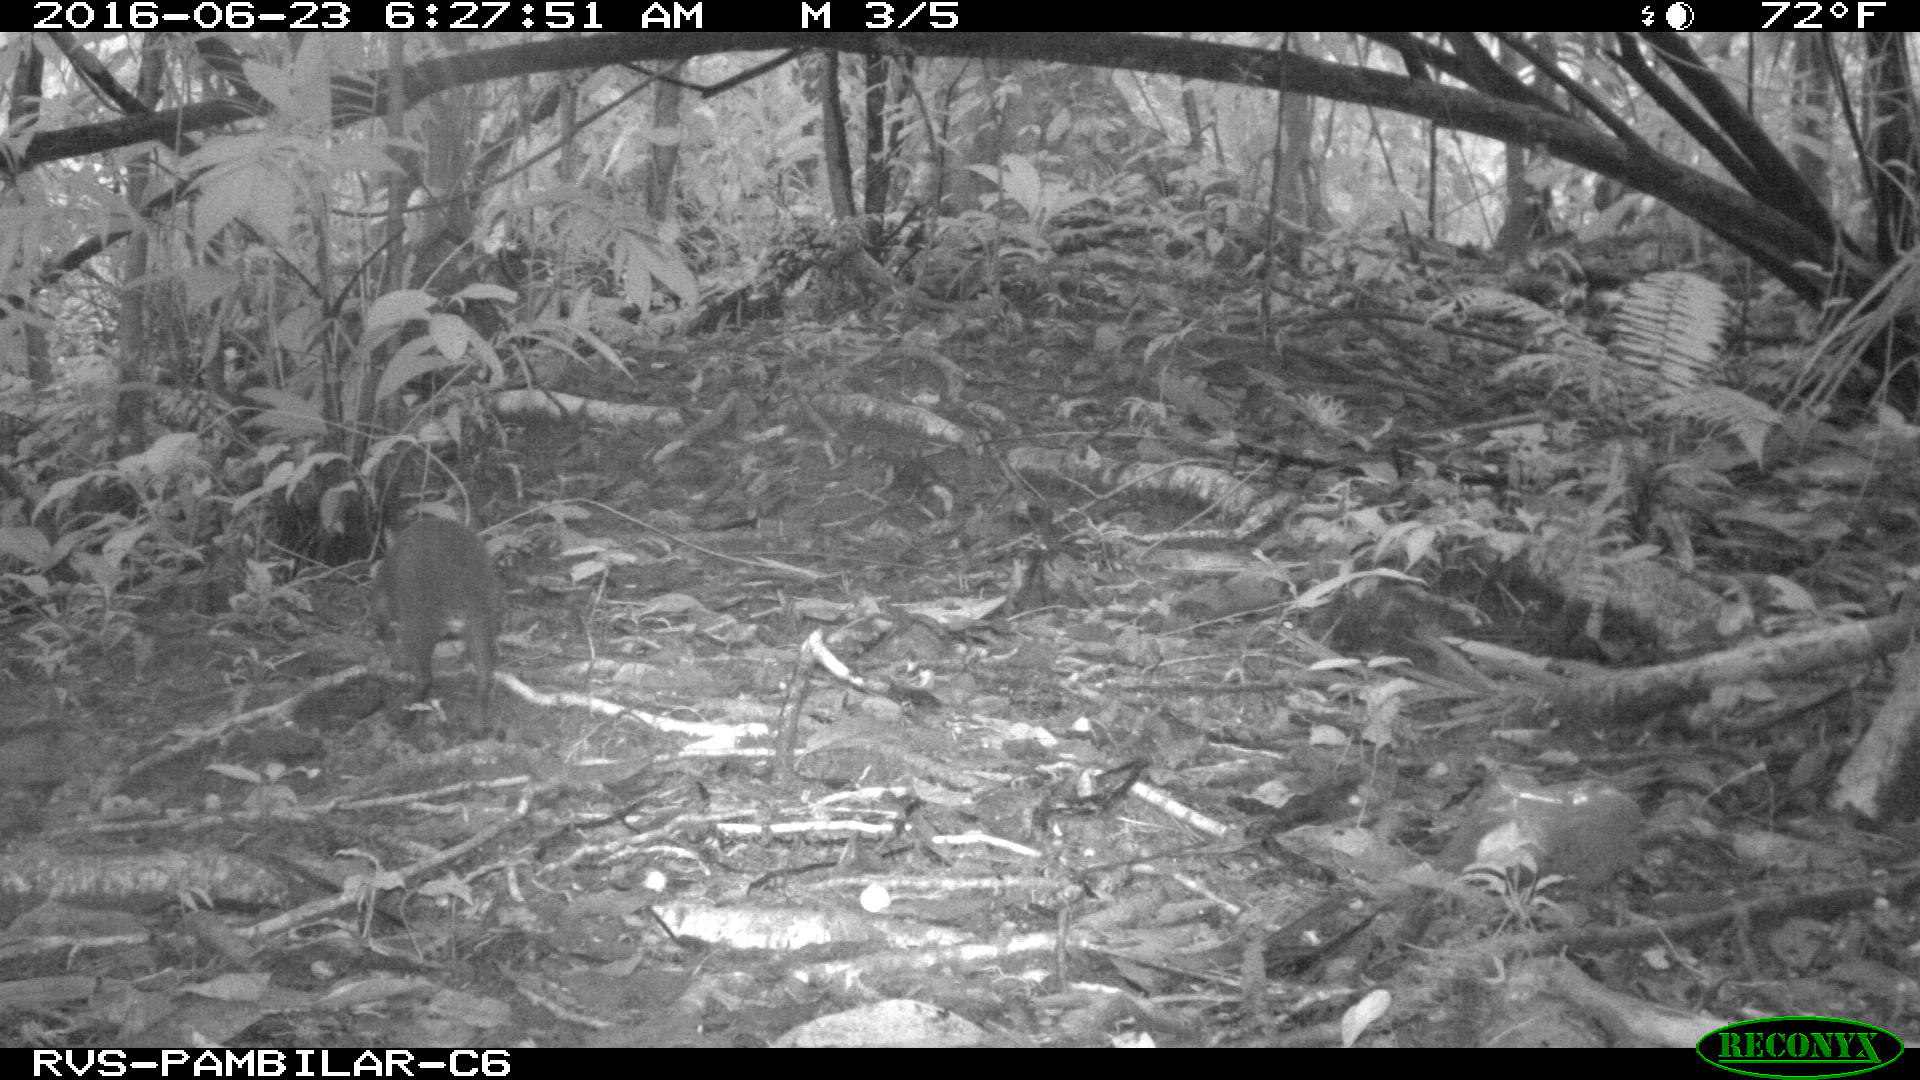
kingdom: Animalia
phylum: Chordata
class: Mammalia
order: Rodentia
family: Dasyproctidae
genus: Dasyprocta
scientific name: Dasyprocta punctata
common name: Central american agouti
